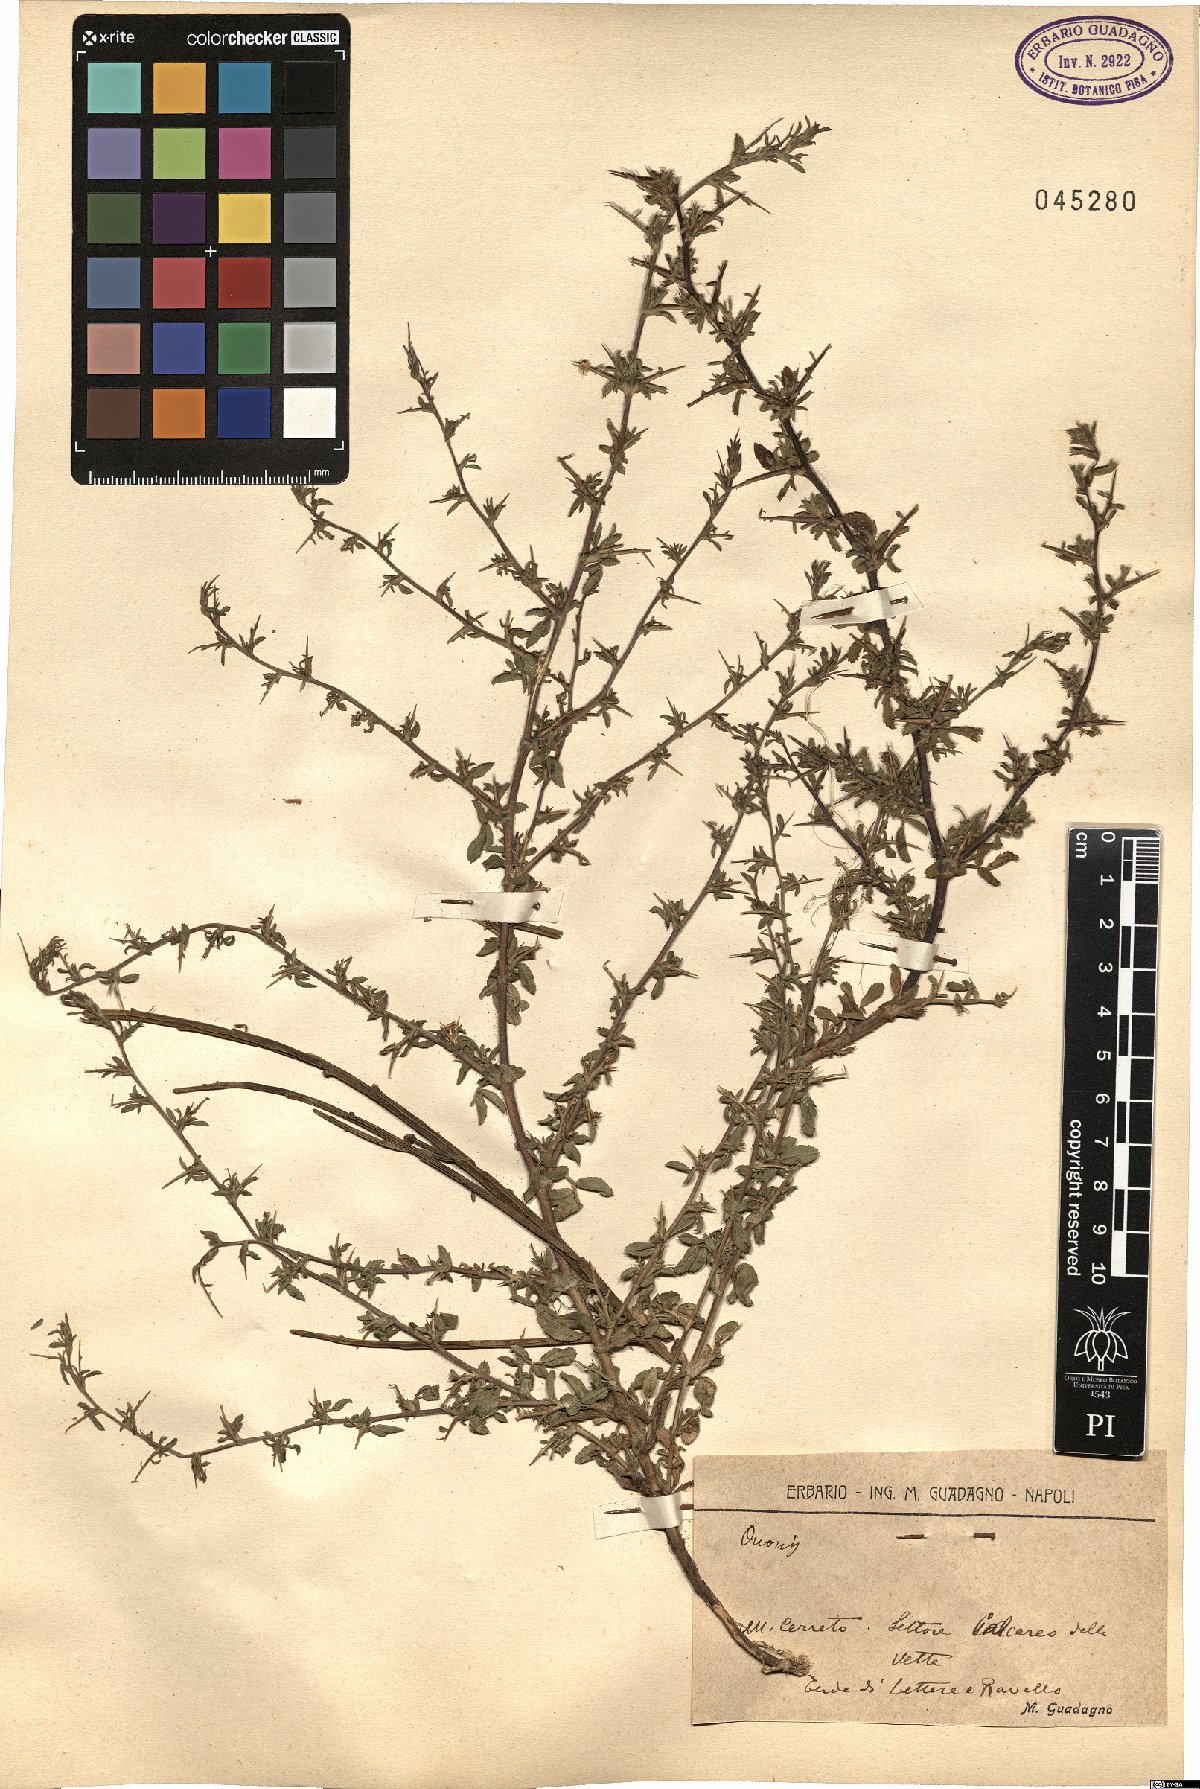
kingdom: Plantae
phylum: Tracheophyta
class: Magnoliopsida
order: Fabales
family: Fabaceae
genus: Ononis
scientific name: Ononis
